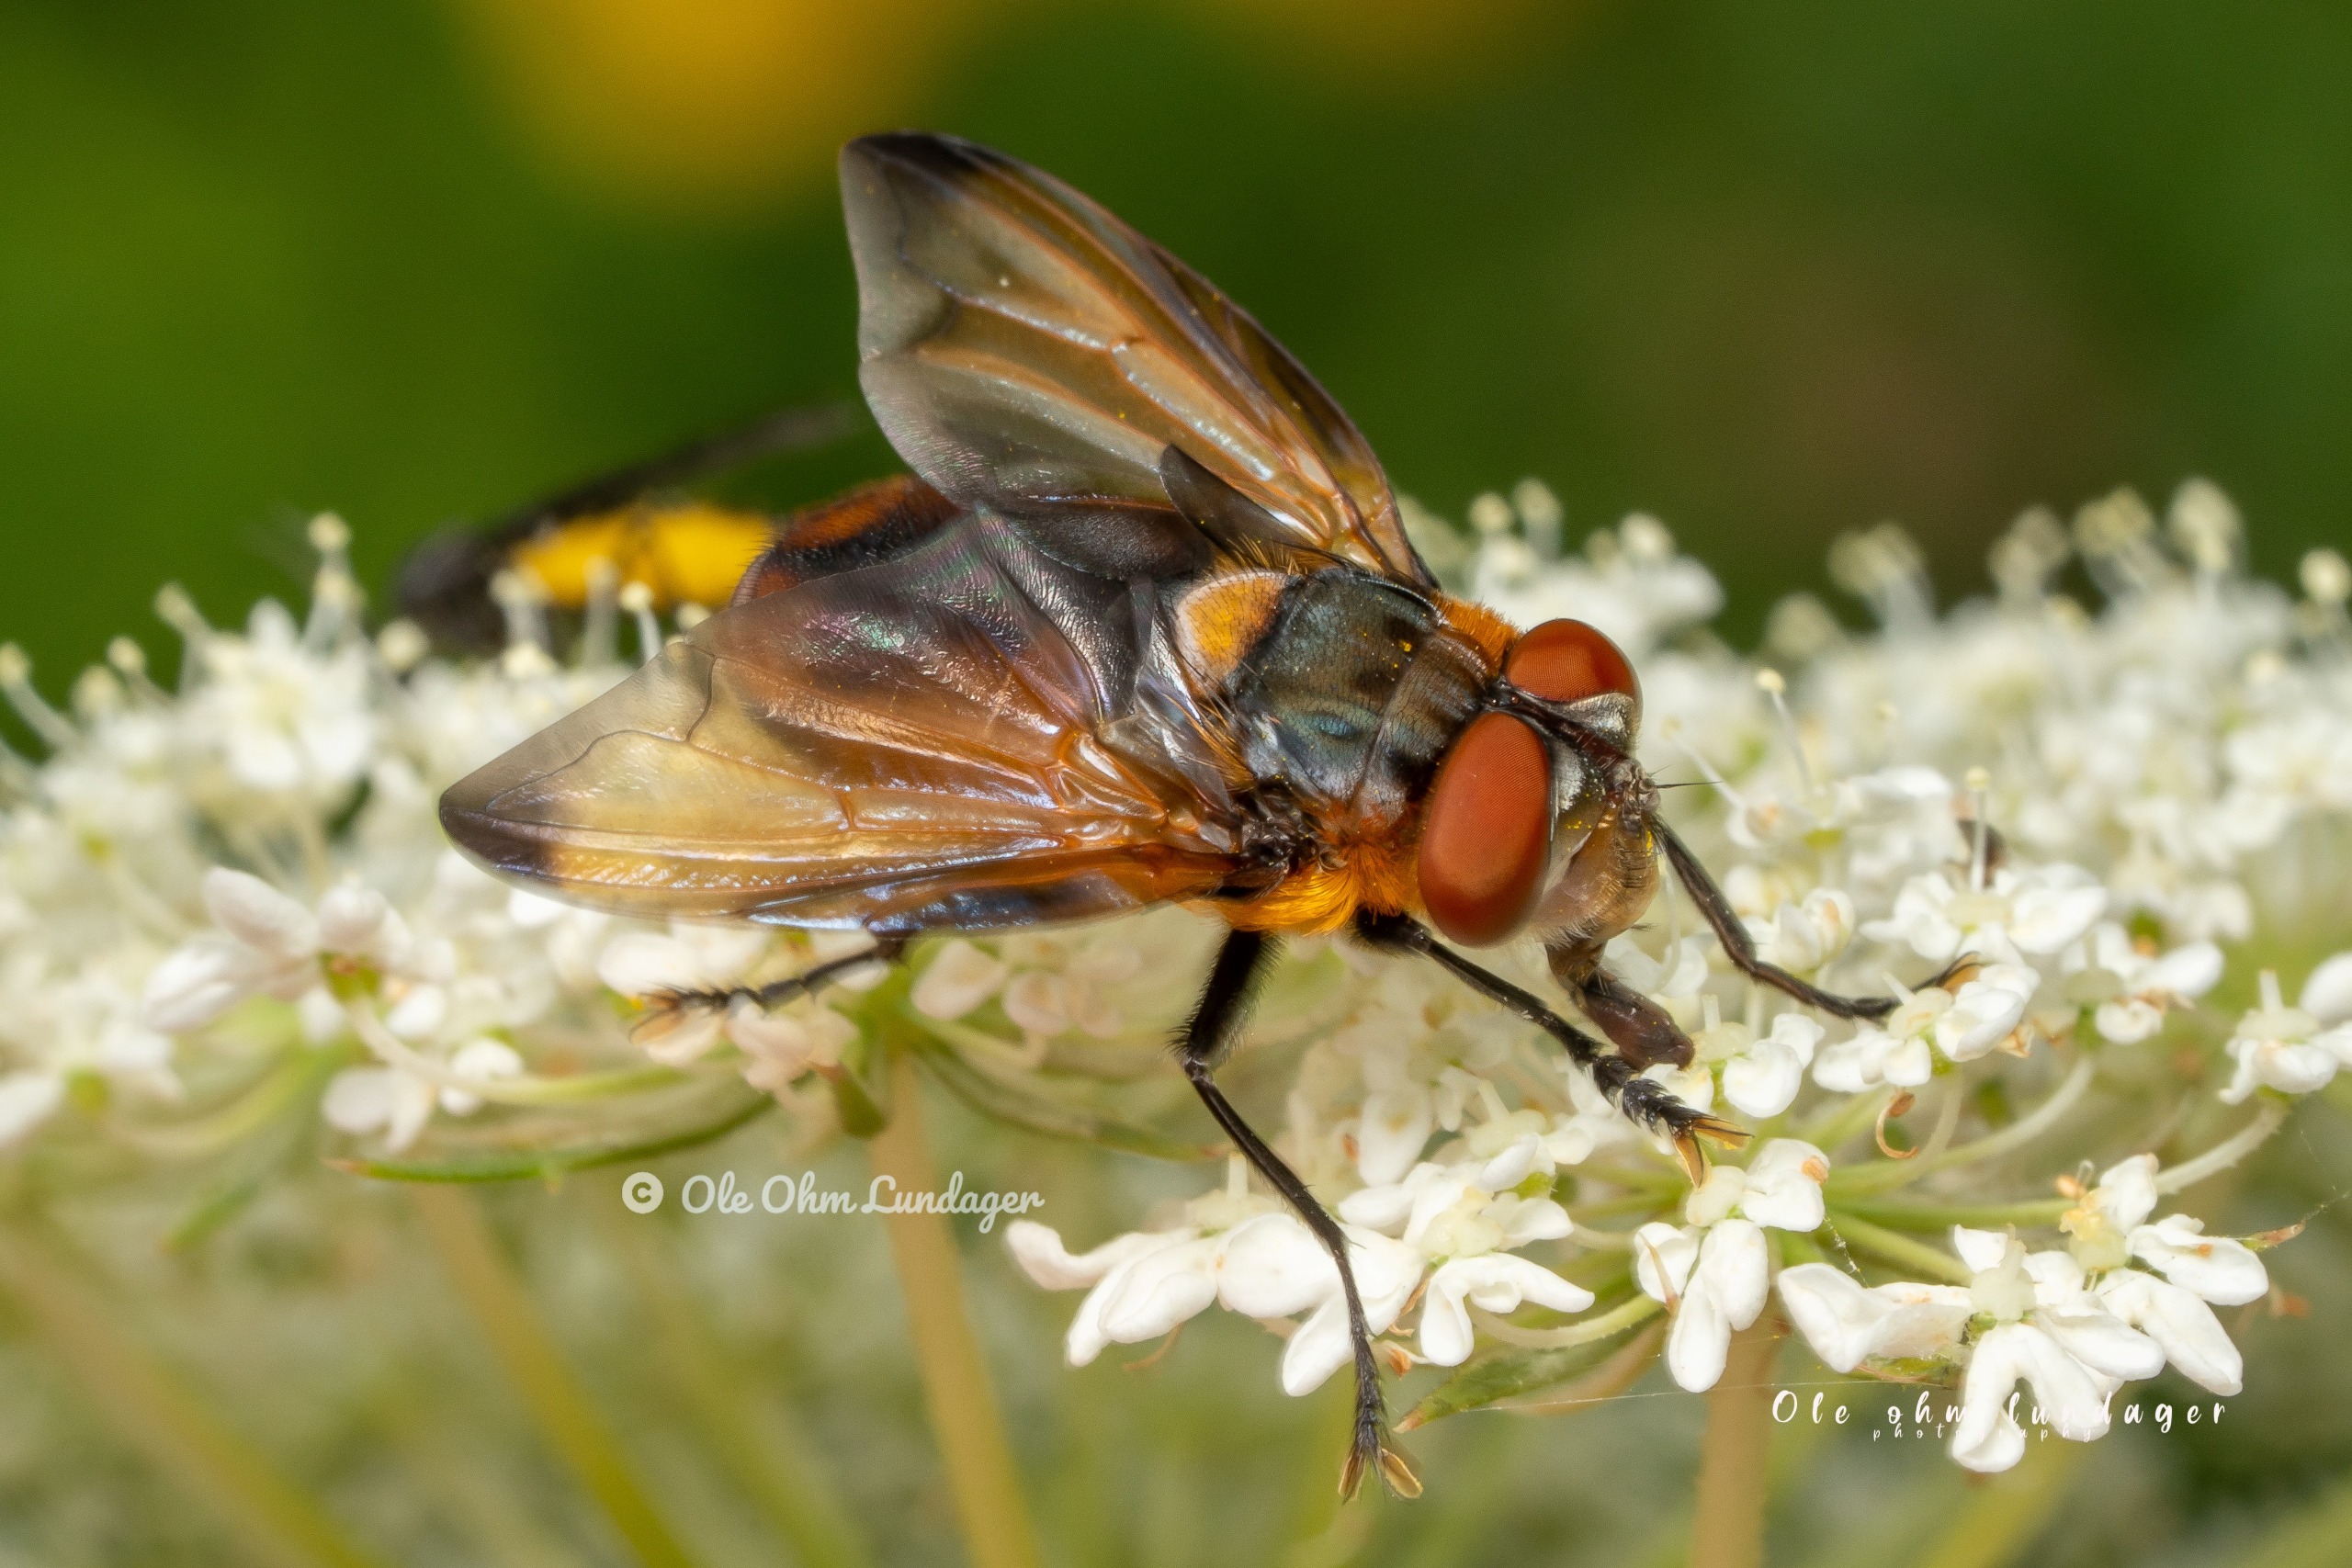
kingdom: Animalia
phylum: Arthropoda
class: Insecta
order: Diptera
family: Tachinidae
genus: Phasia
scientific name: Phasia hemiptera
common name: Blåvinget pragtsnylteflue
